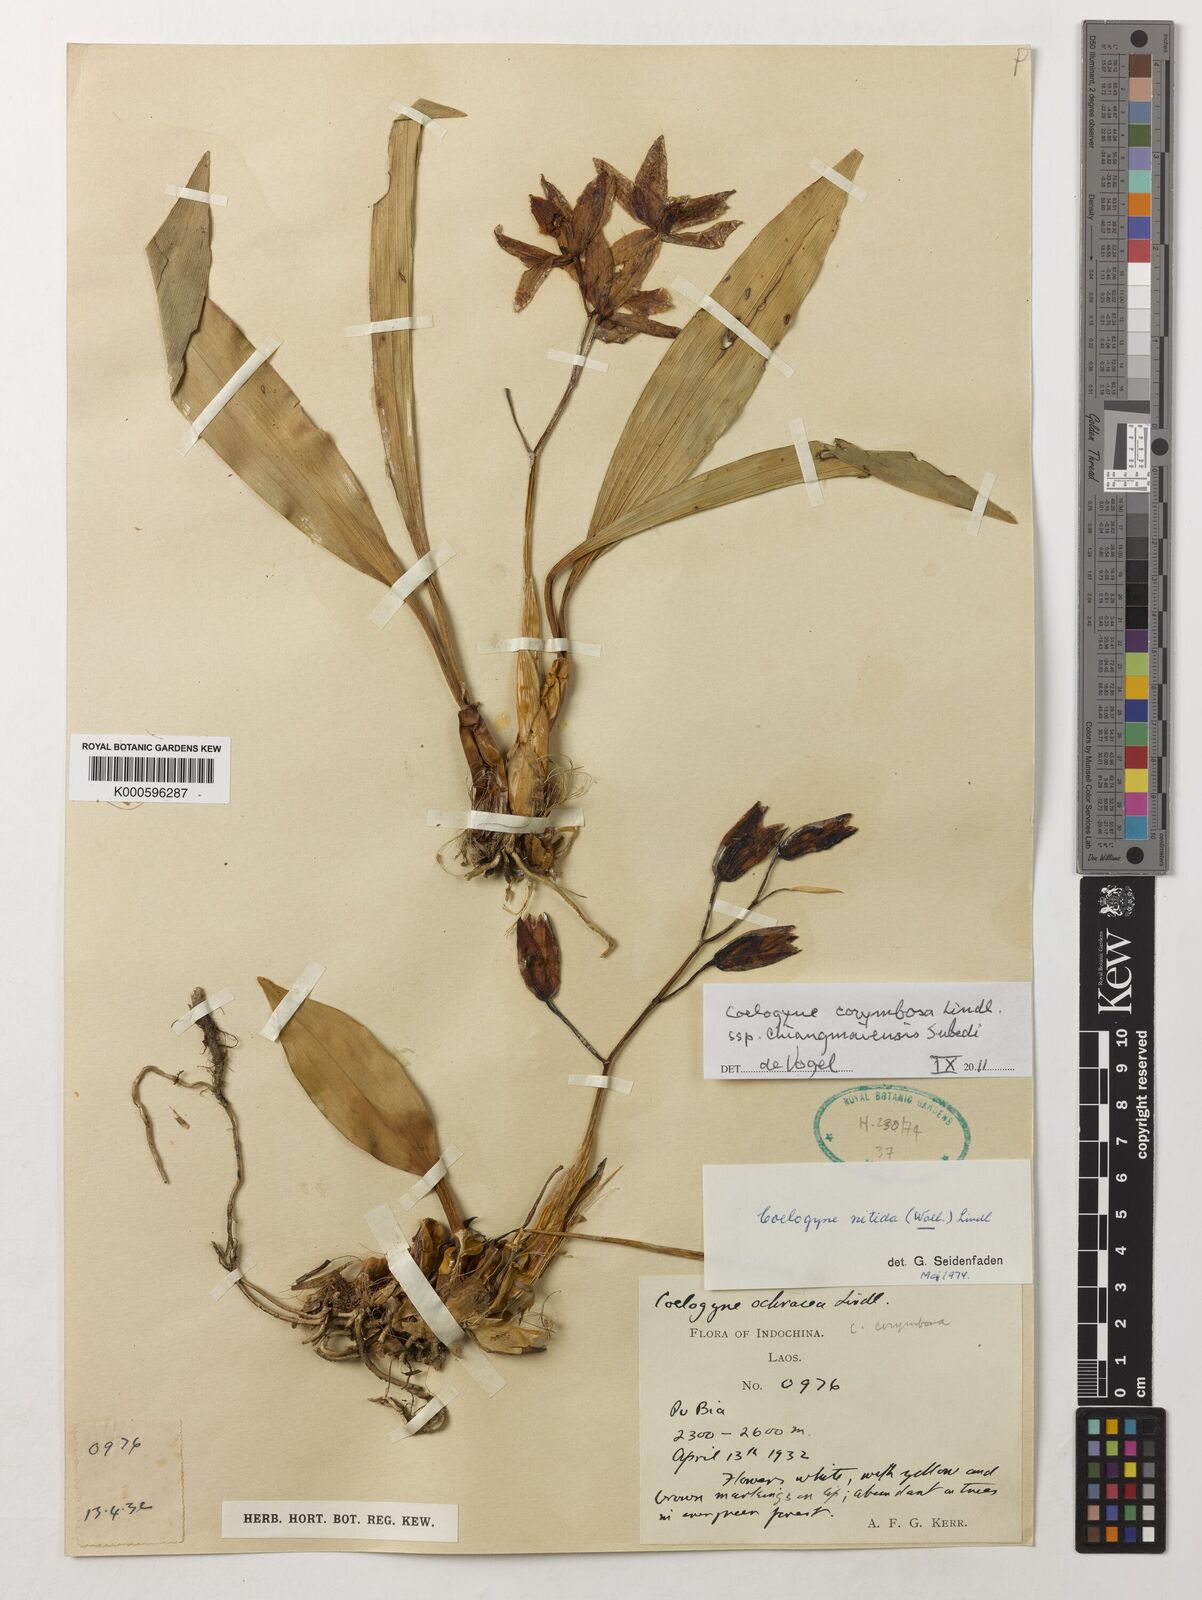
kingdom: Plantae
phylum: Tracheophyta
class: Liliopsida
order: Asparagales
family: Orchidaceae
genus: Coelogyne
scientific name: Coelogyne corymbosa
